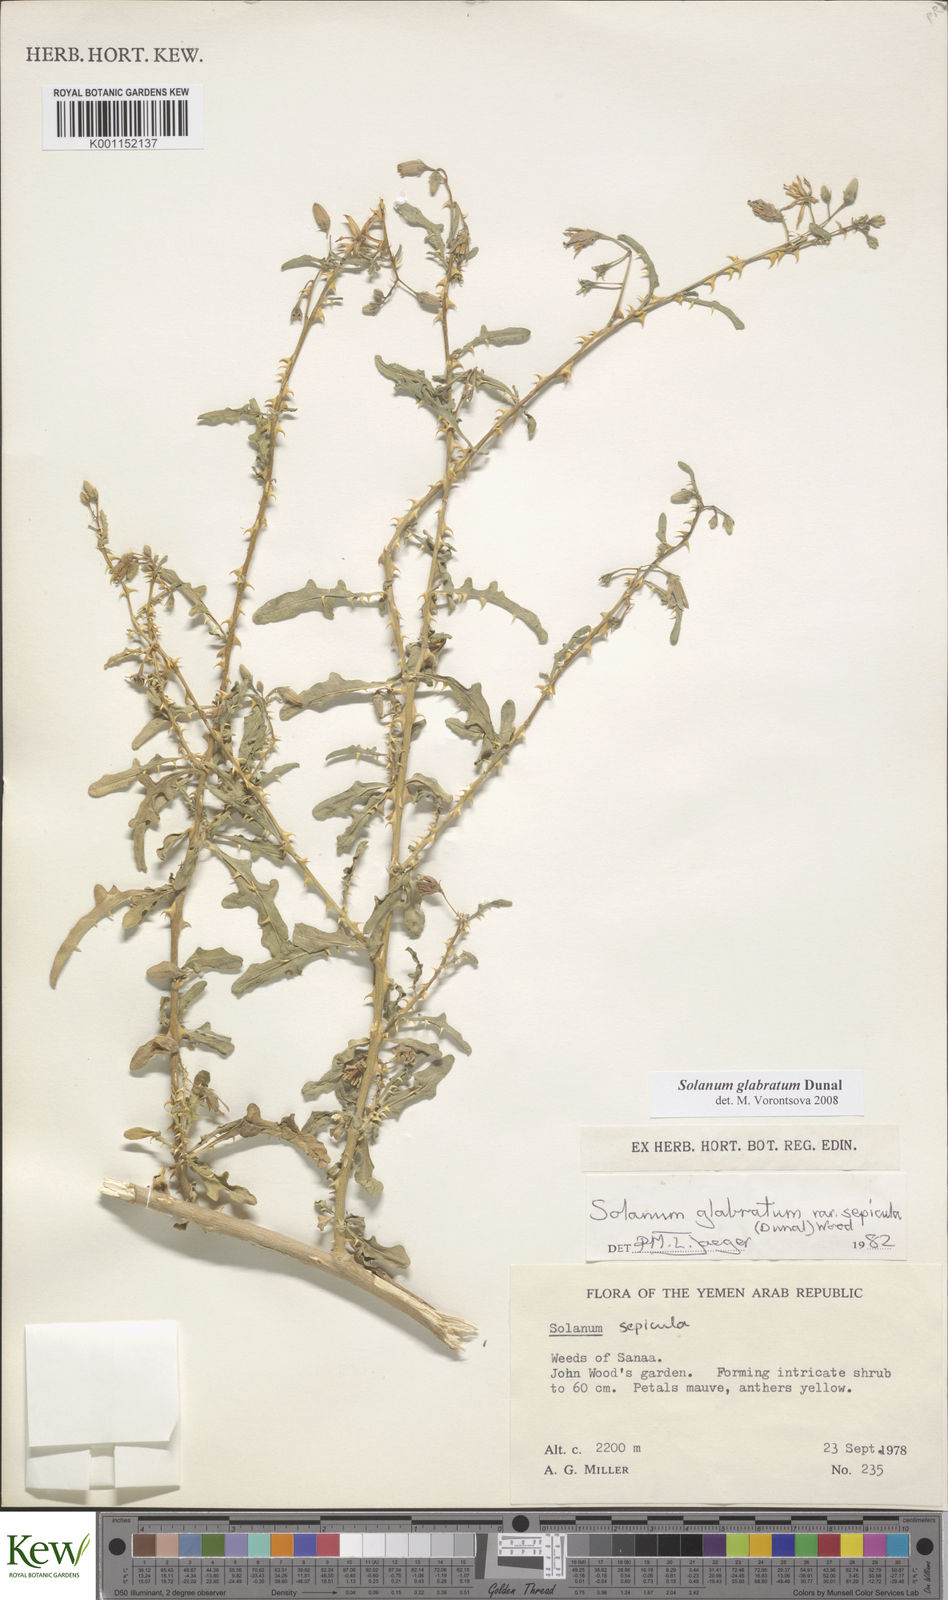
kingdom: Plantae
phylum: Tracheophyta
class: Magnoliopsida
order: Solanales
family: Solanaceae
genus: Solanum
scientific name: Solanum glabratum
